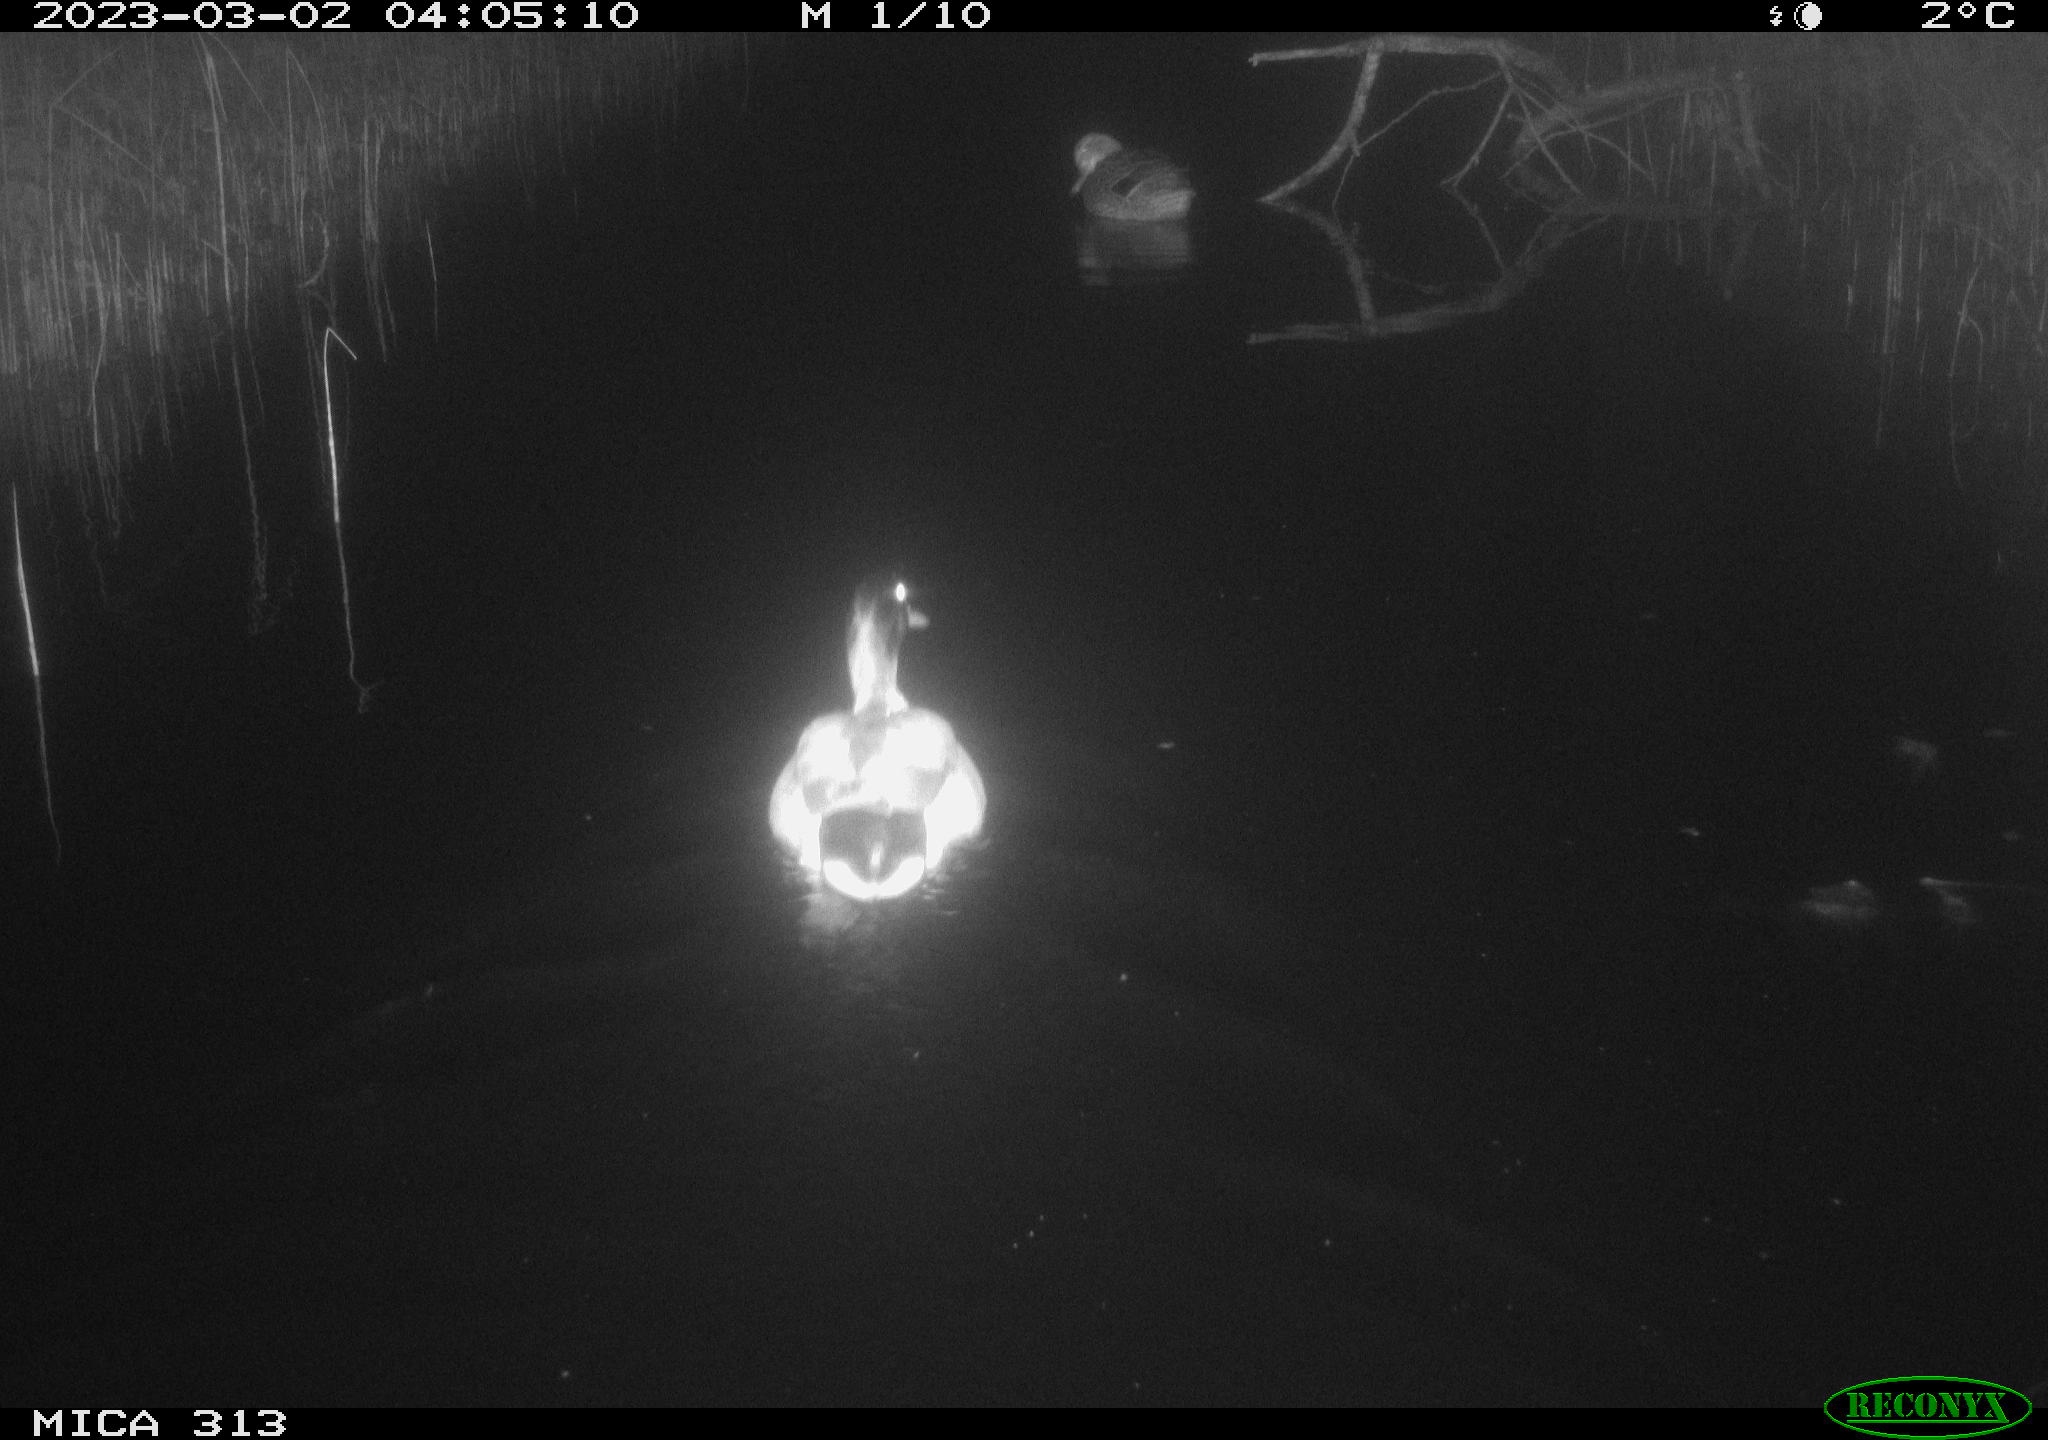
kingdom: Animalia
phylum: Chordata
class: Aves
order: Anseriformes
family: Anatidae
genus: Anas
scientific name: Anas
